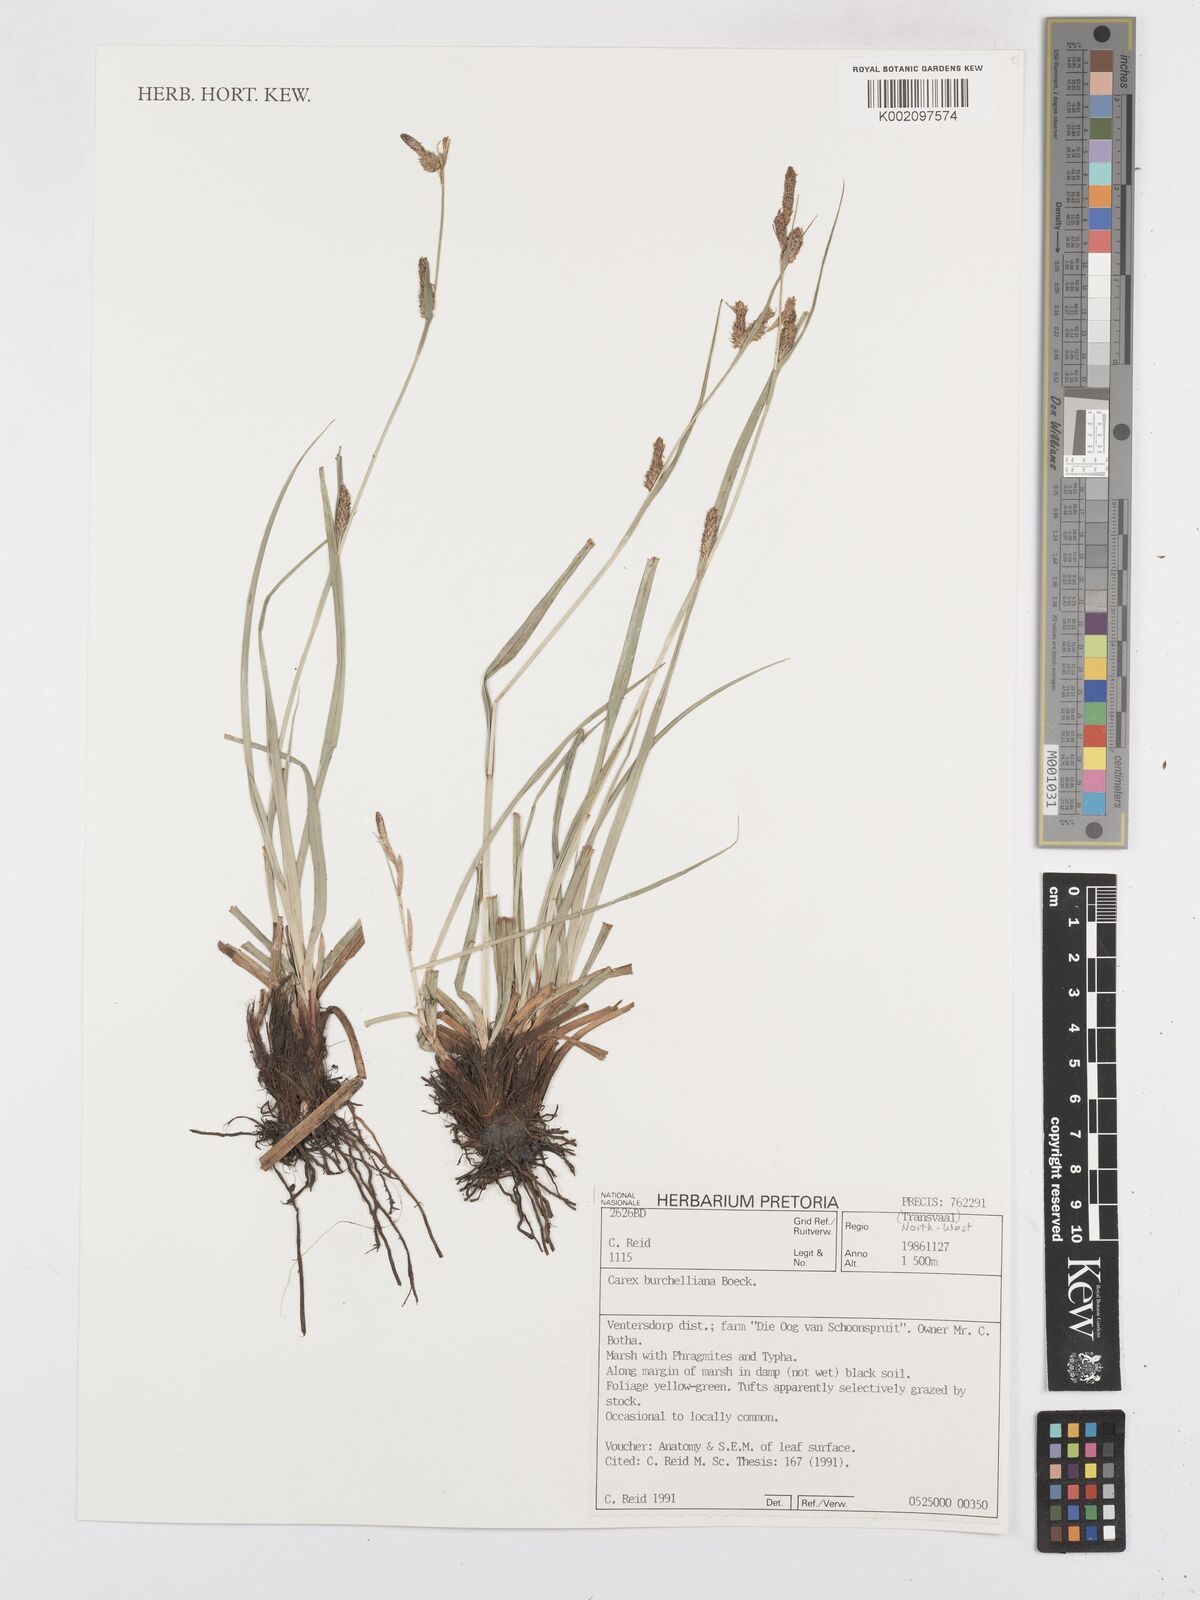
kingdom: Plantae
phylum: Tracheophyta
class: Liliopsida
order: Poales
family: Cyperaceae
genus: Carex
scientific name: Carex burchelliana
